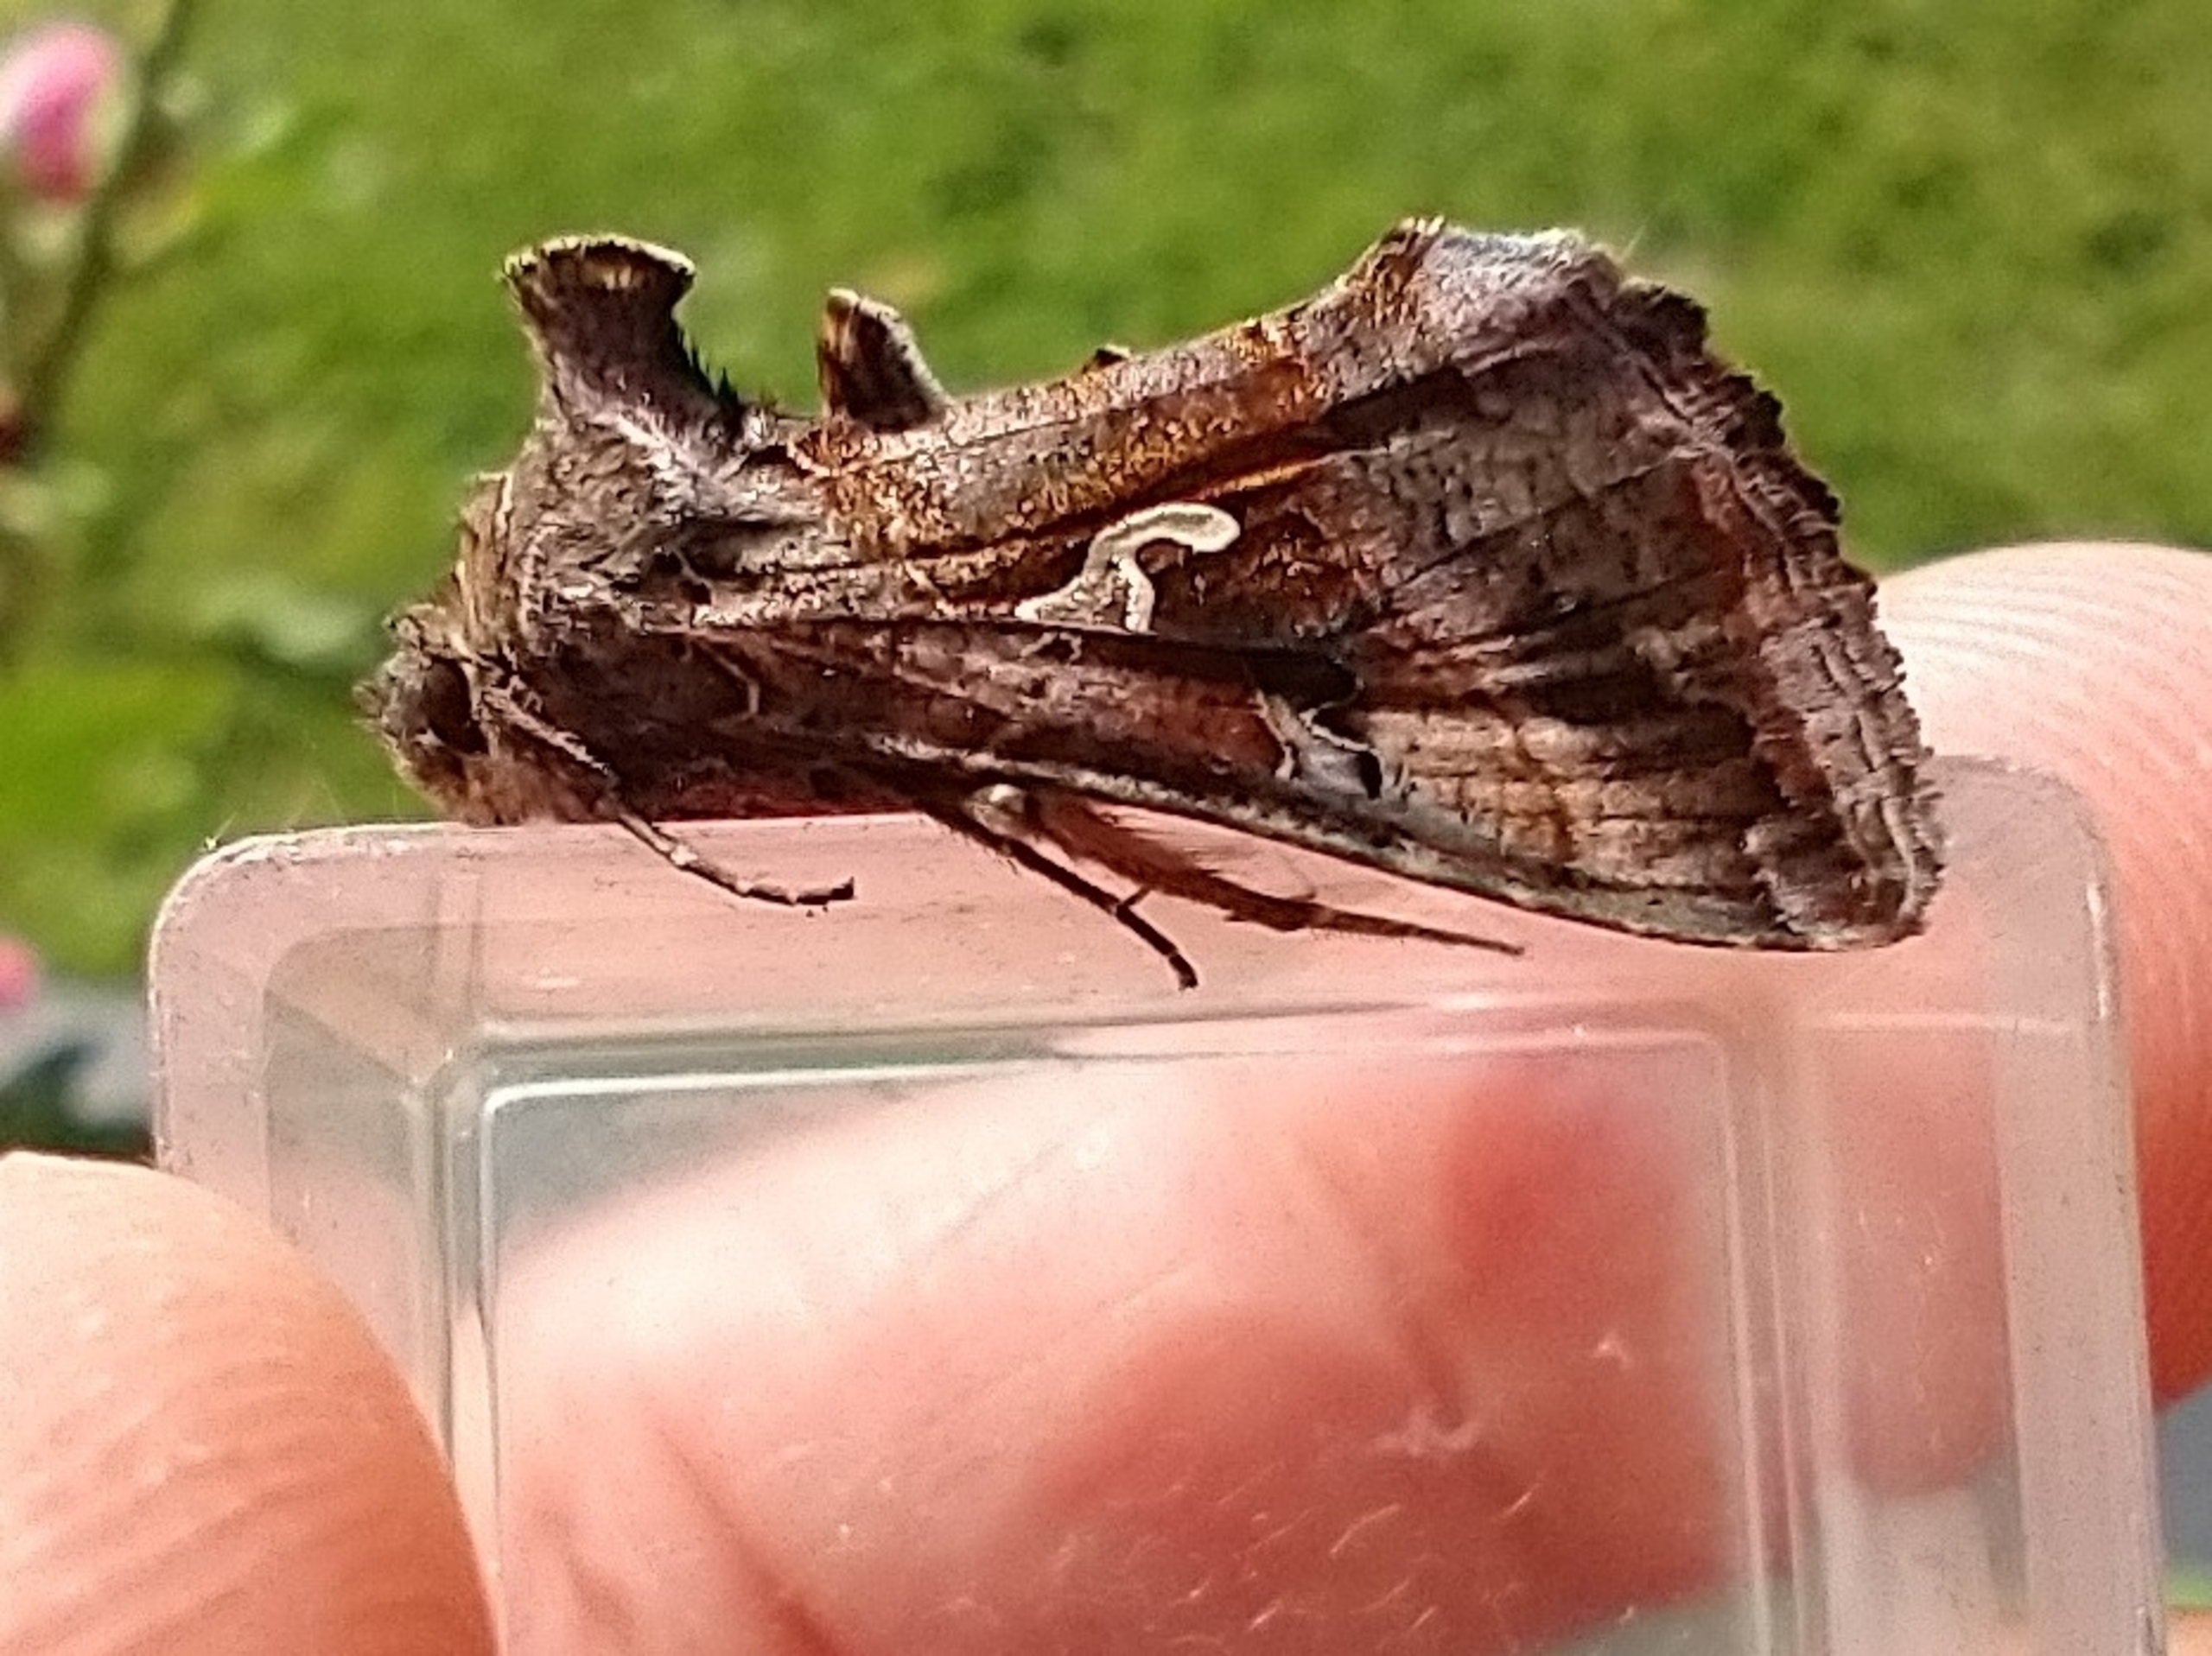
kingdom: Animalia
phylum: Arthropoda
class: Insecta
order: Lepidoptera
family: Noctuidae
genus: Autographa
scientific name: Autographa gamma
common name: Gammaugle
